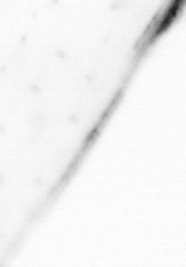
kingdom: Animalia
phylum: Chaetognatha
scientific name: Chaetognatha
